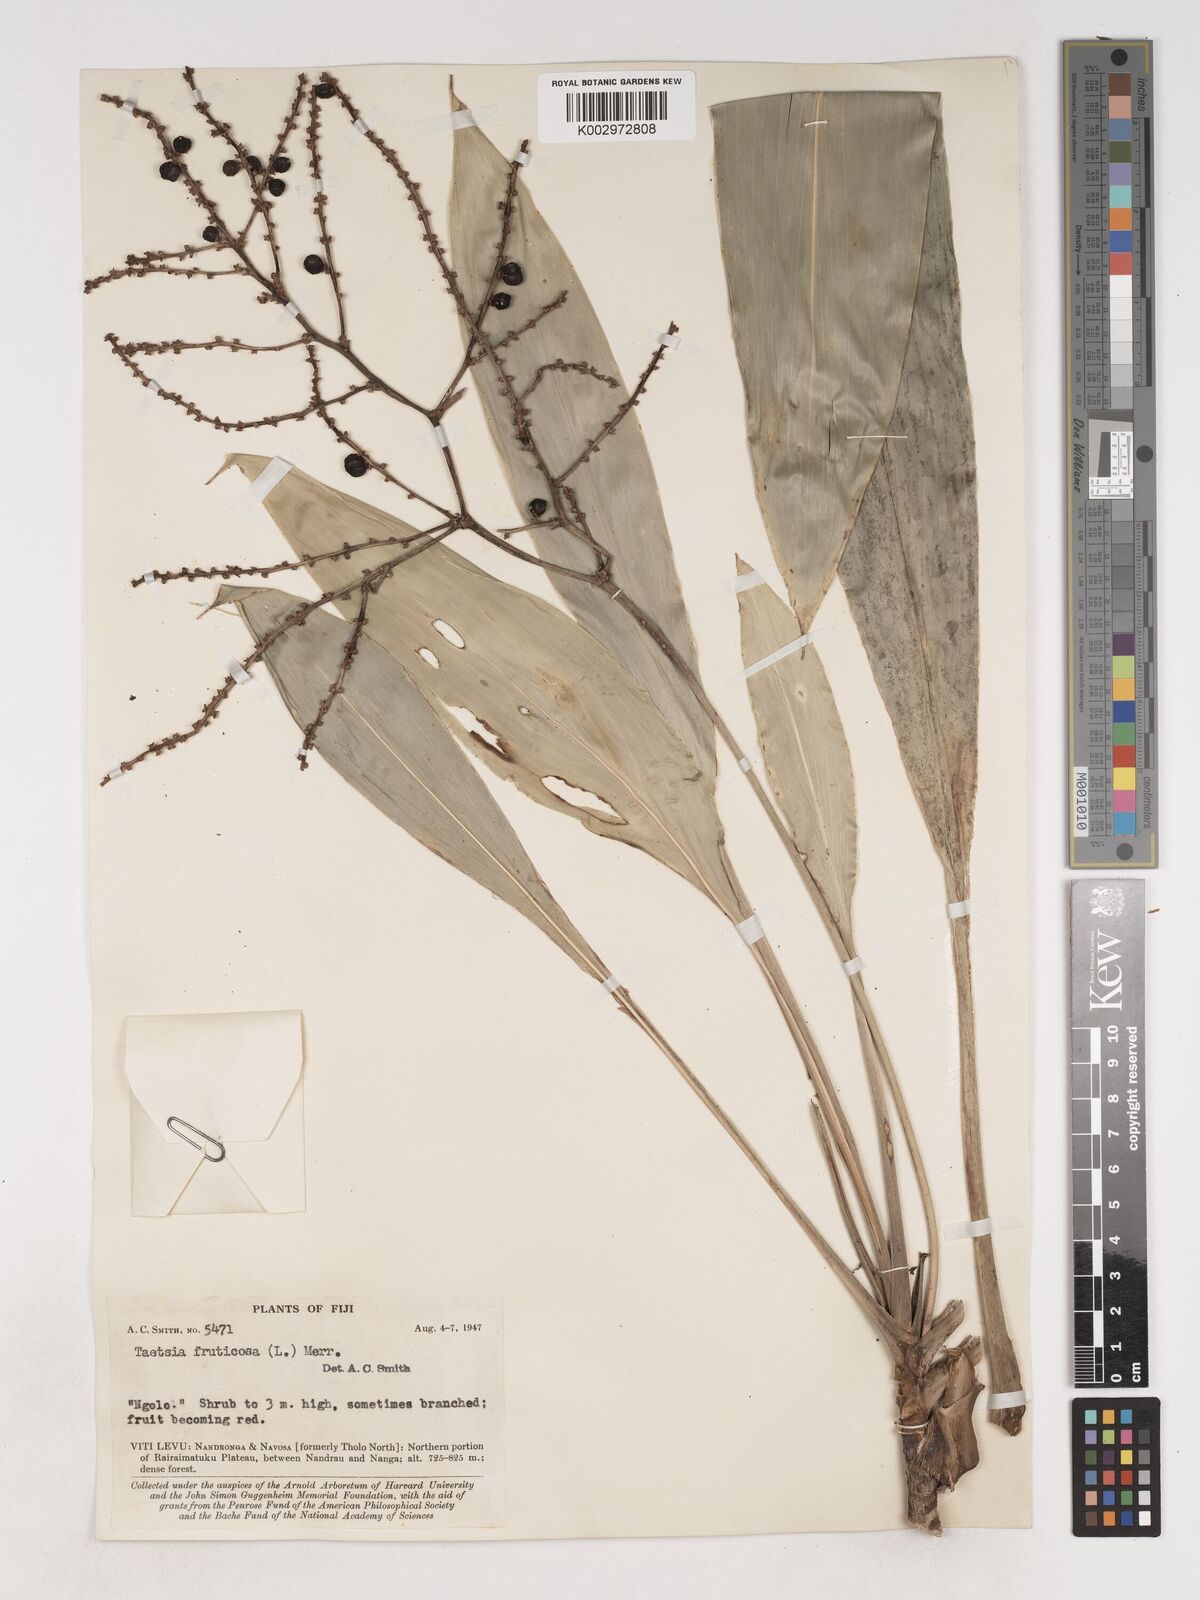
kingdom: Plantae
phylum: Tracheophyta
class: Liliopsida
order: Asparagales
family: Asparagaceae
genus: Cordyline
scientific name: Cordyline fruticosa
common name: Good-luck-plant
